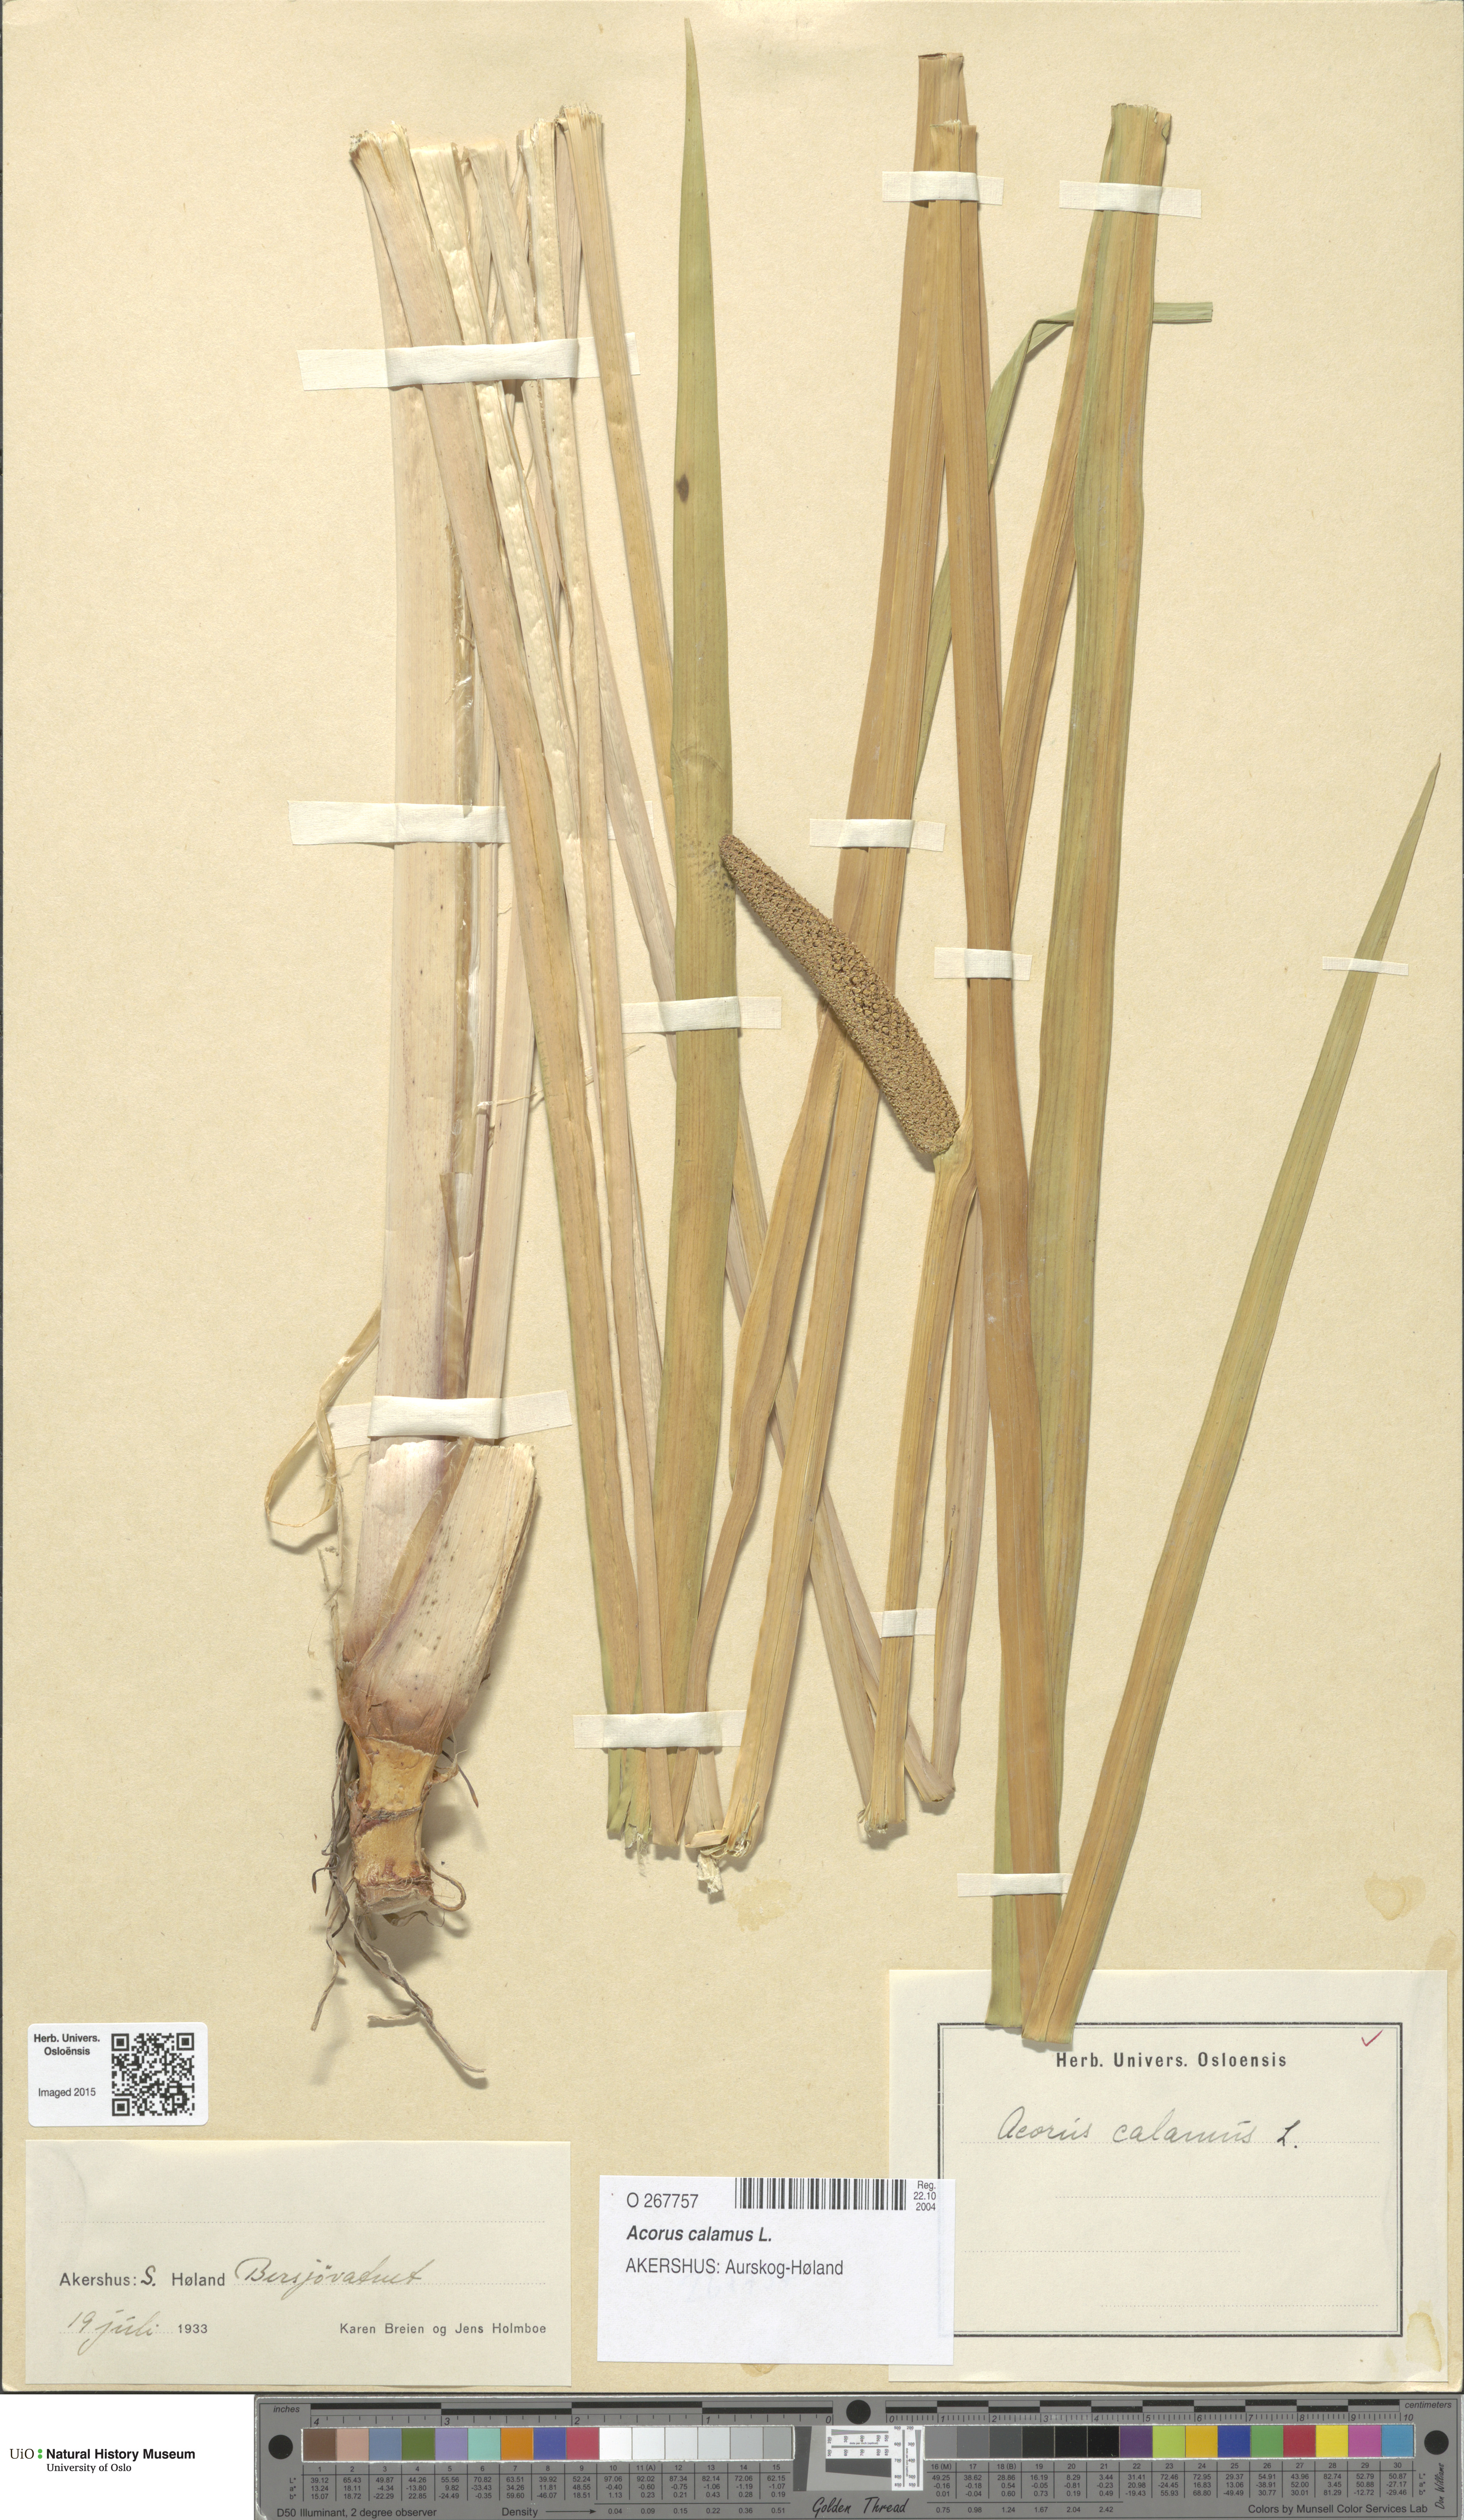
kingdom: Plantae
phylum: Tracheophyta
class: Liliopsida
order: Acorales
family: Acoraceae
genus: Acorus
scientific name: Acorus calamus
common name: Sweet-flag
